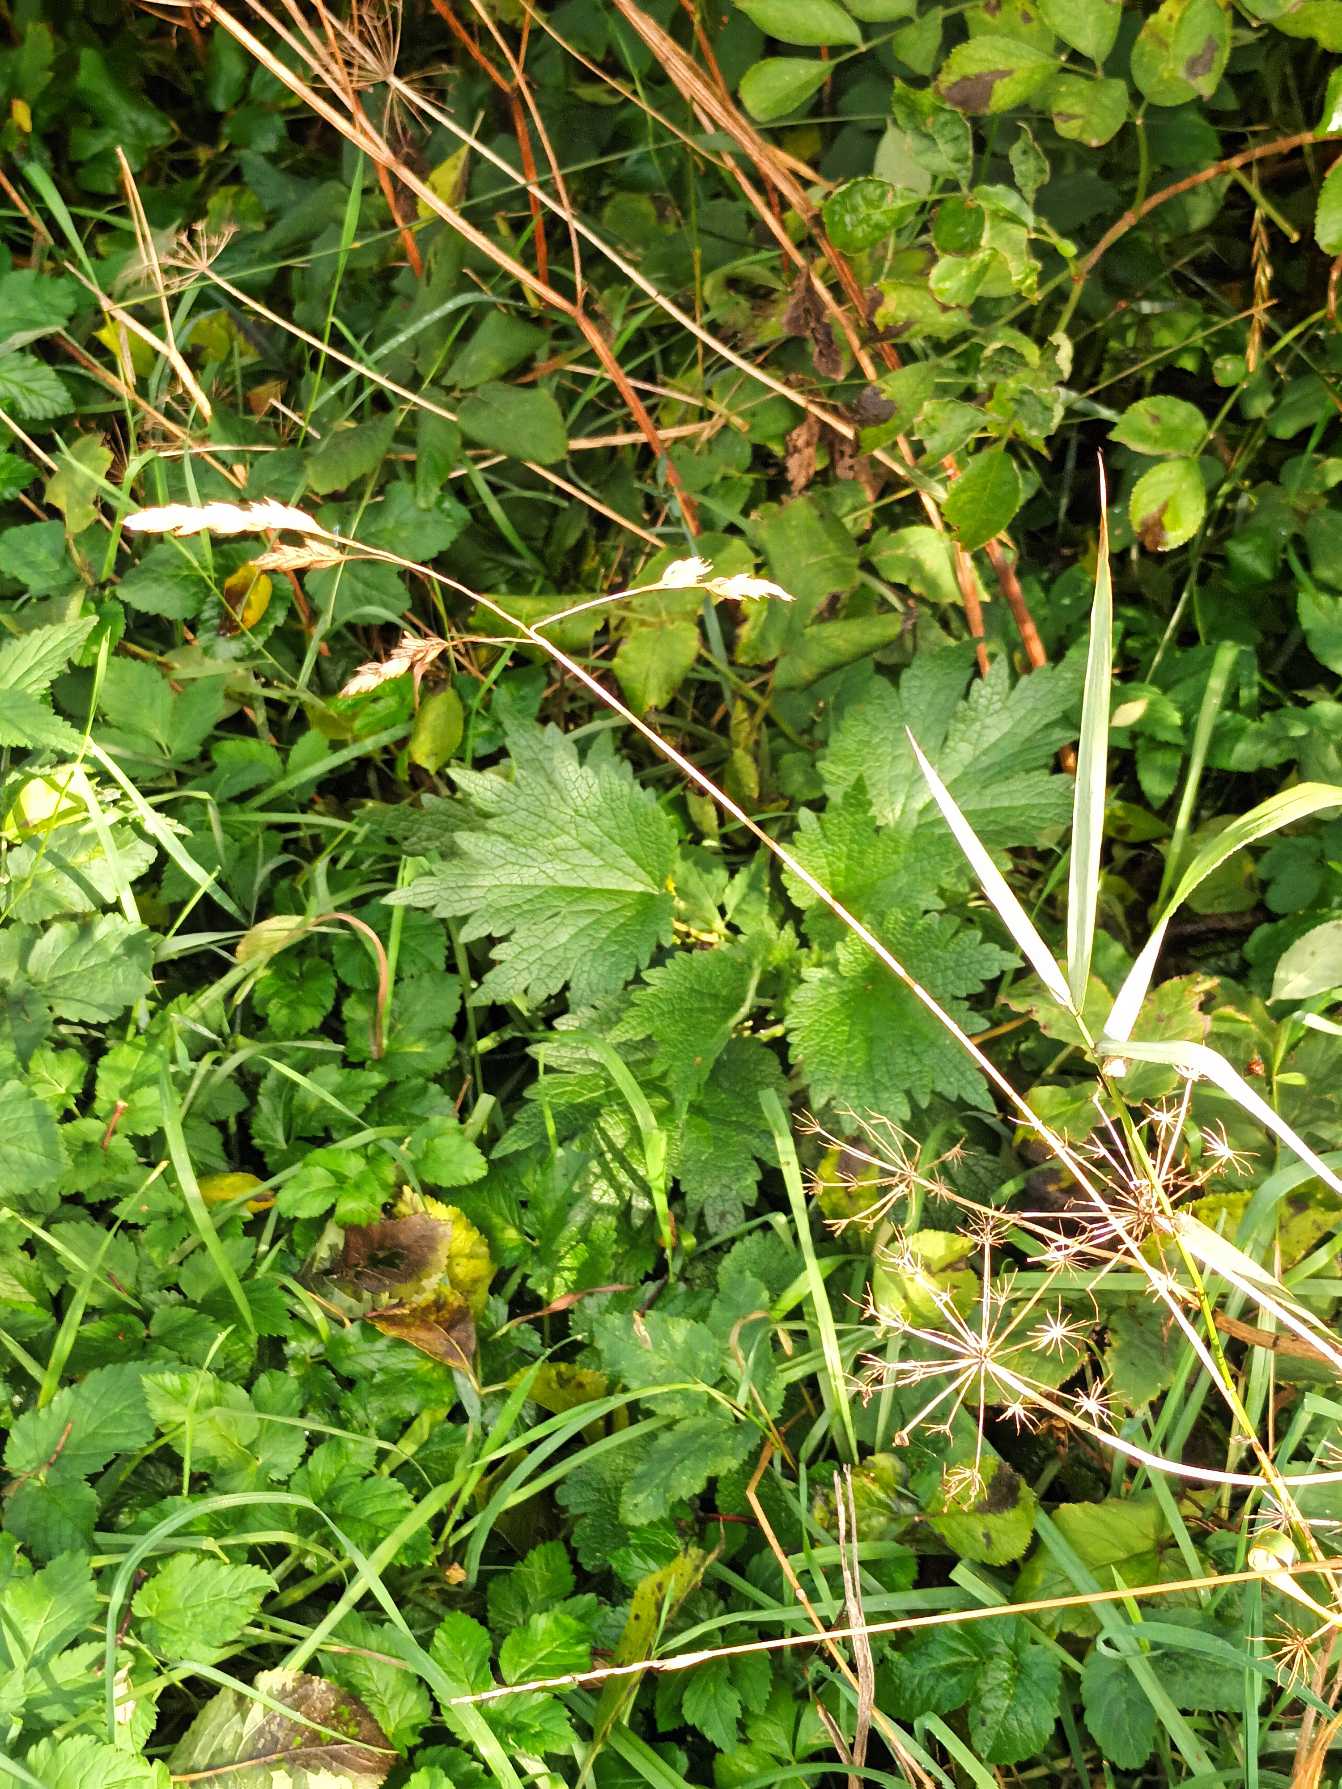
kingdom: Plantae
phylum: Tracheophyta
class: Liliopsida
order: Poales
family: Poaceae
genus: Dactylis
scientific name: Dactylis glomerata
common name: Almindelig hundegræs
